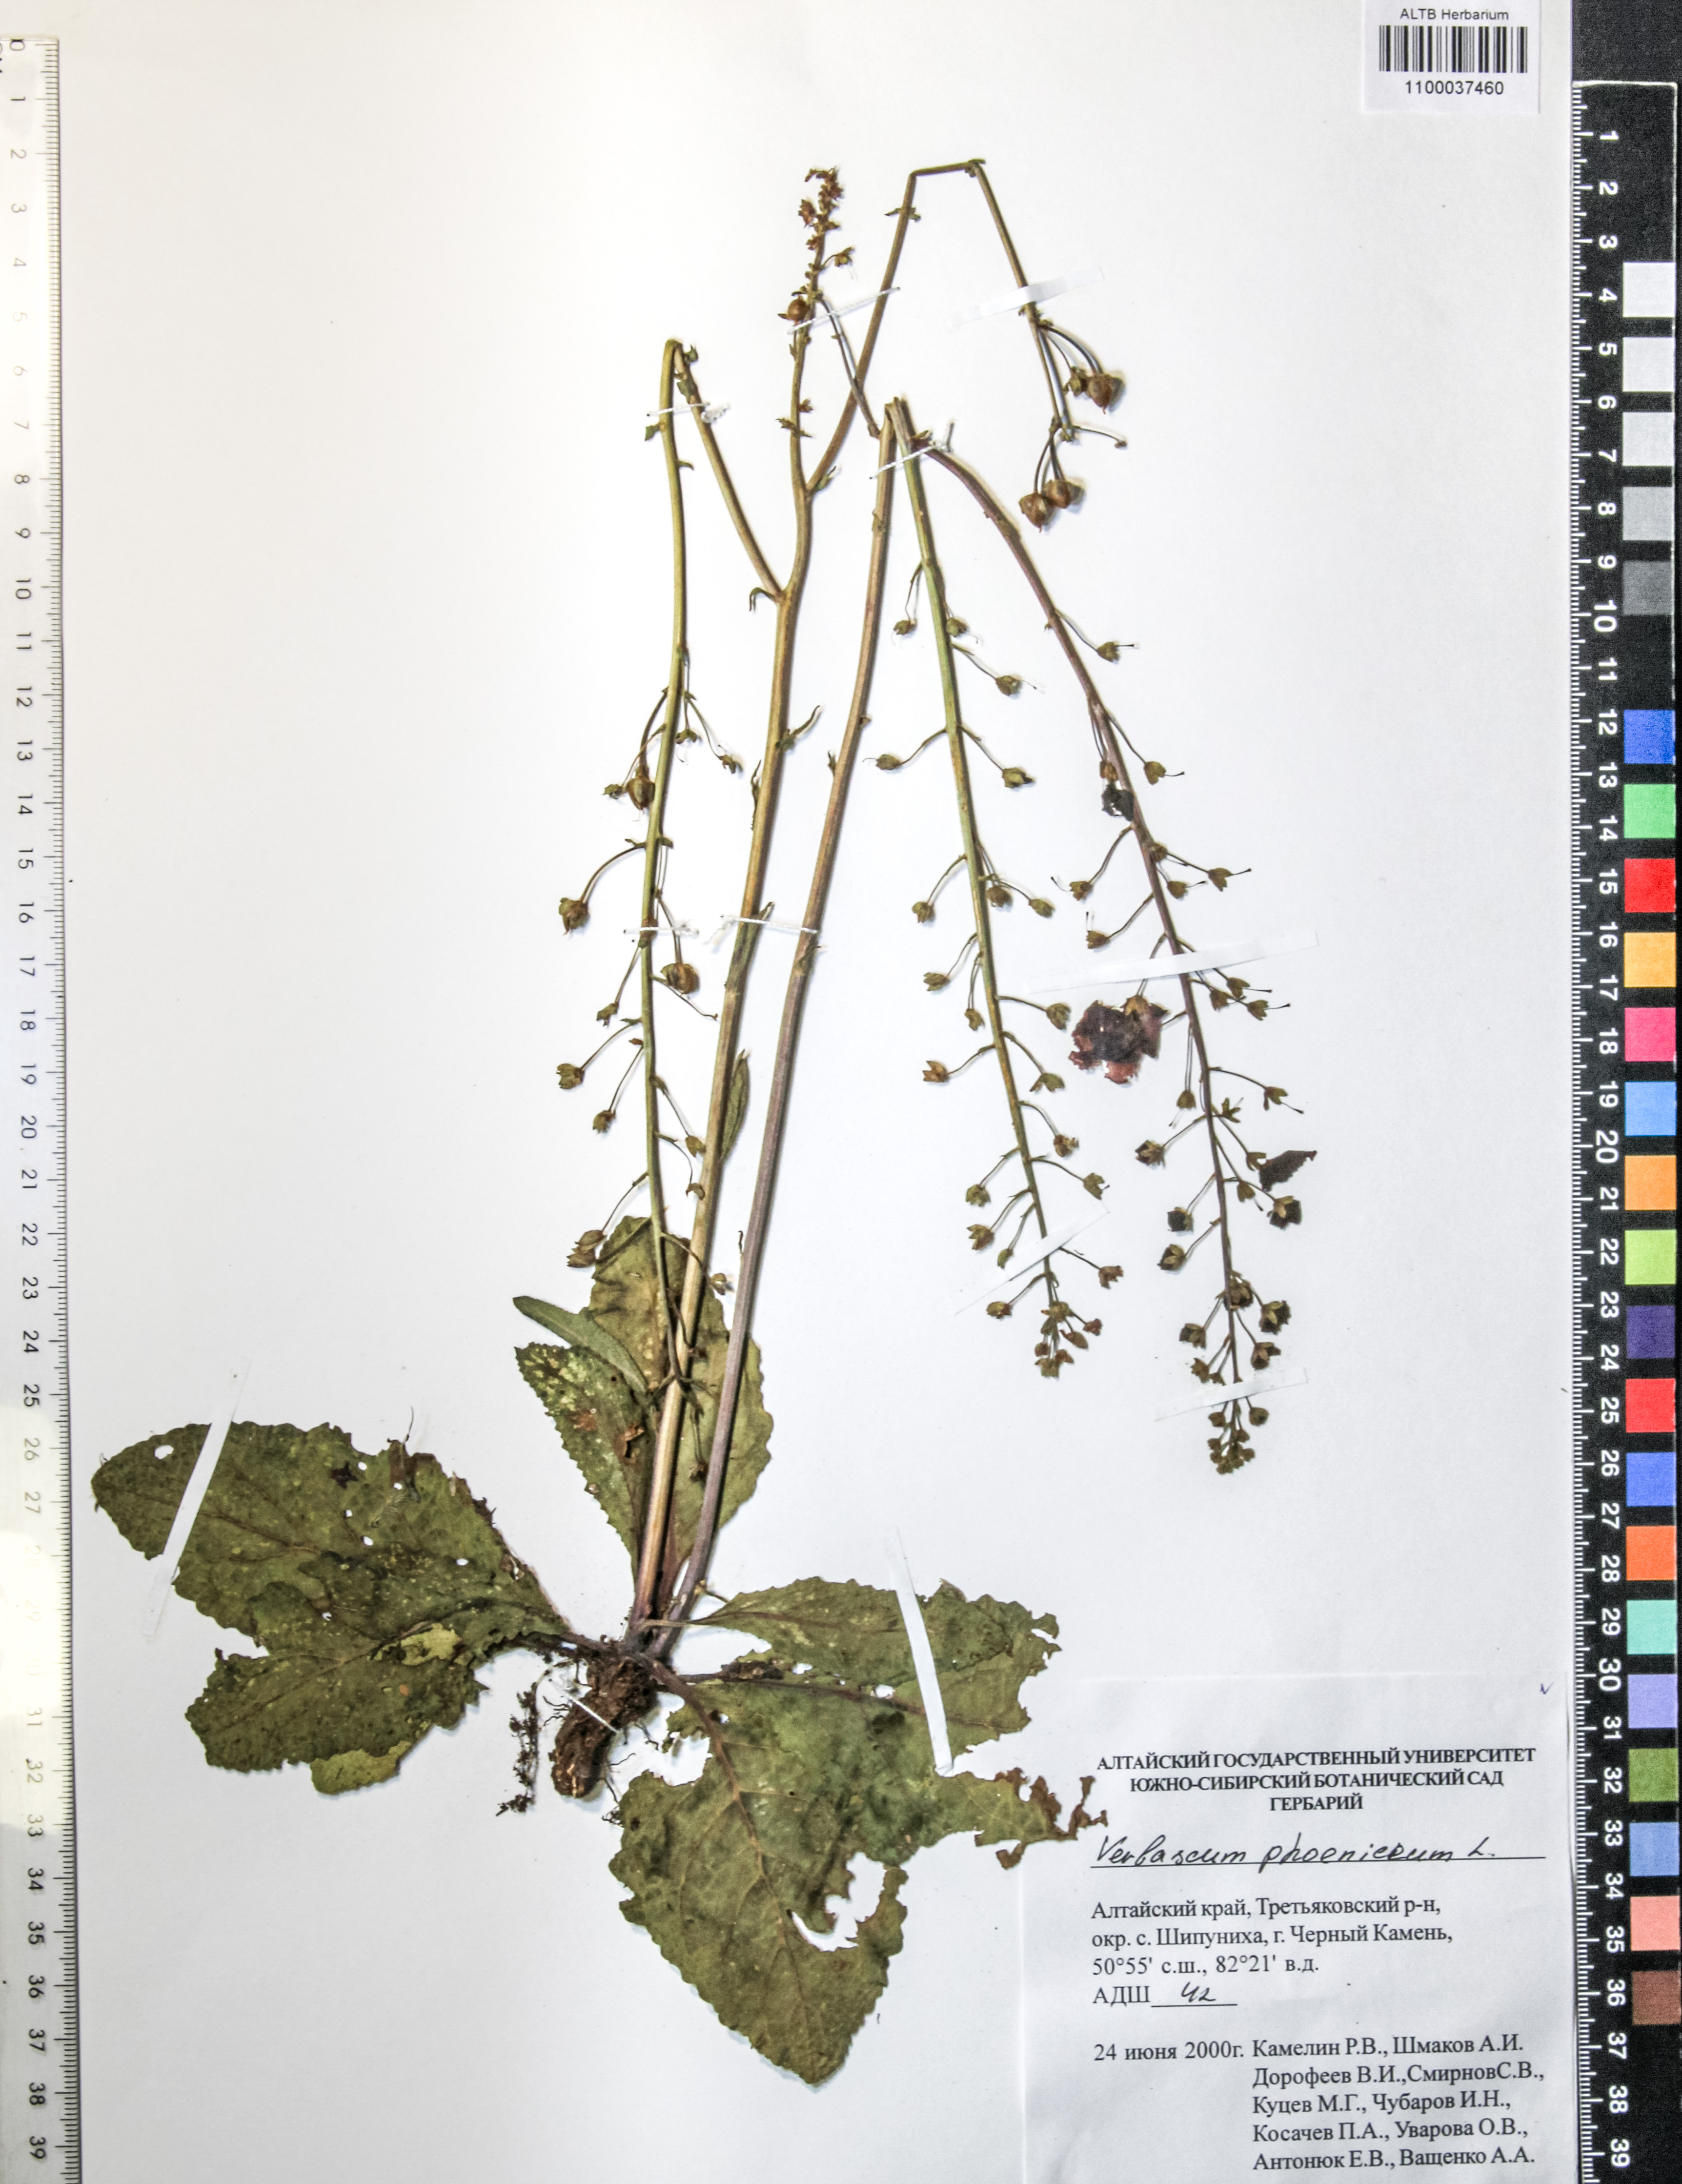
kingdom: Plantae
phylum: Tracheophyta
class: Magnoliopsida
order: Lamiales
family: Scrophulariaceae
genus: Verbascum
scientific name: Verbascum phoeniceum
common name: Purple mullein
